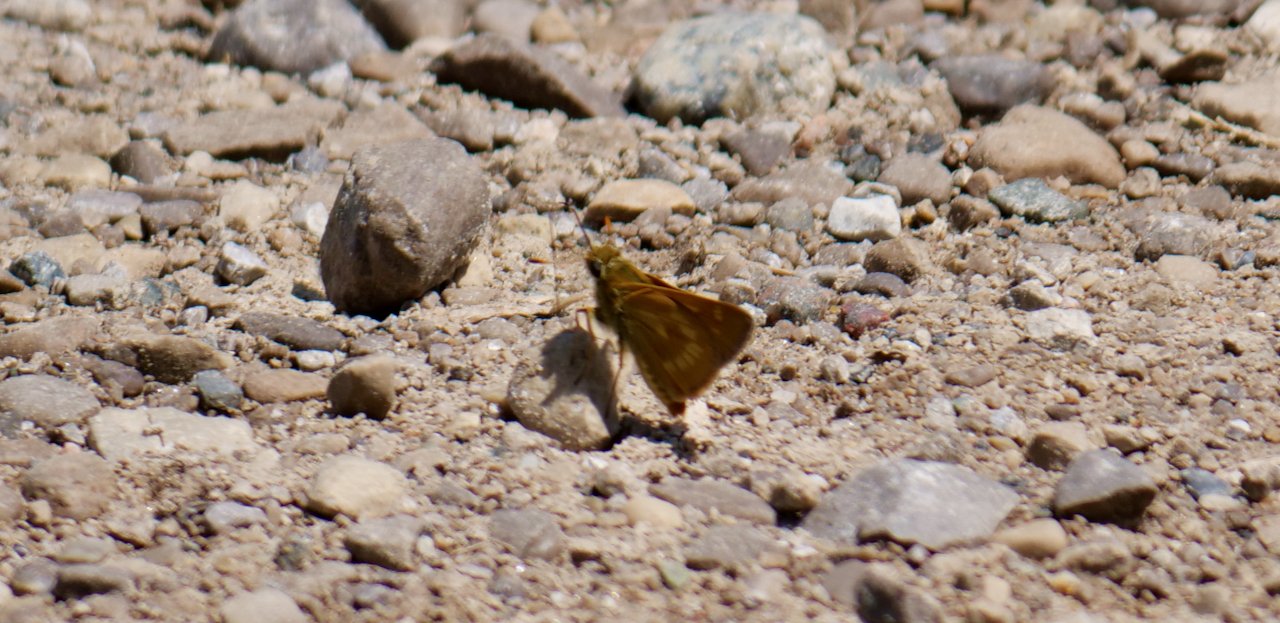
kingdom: Animalia
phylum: Arthropoda
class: Insecta
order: Lepidoptera
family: Hesperiidae
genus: Polites
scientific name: Polites
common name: Long Dash Skipper
